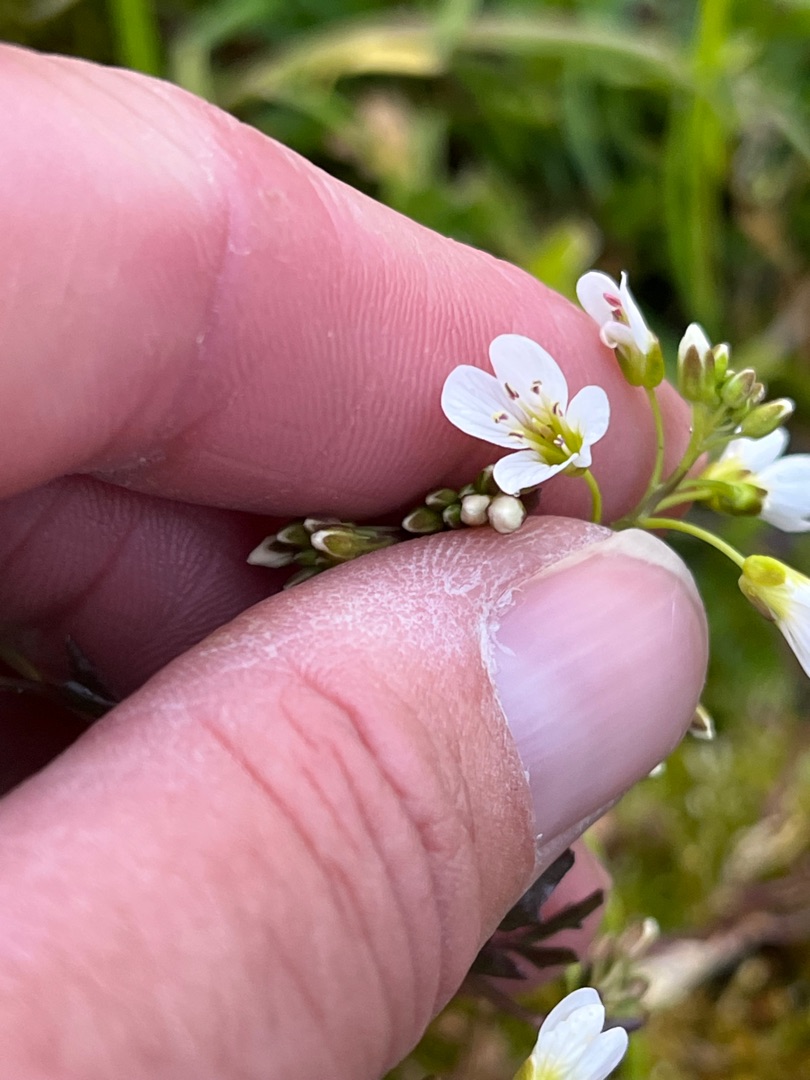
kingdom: Plantae
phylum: Tracheophyta
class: Magnoliopsida
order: Brassicales
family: Brassicaceae
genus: Cardamine
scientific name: Cardamine amara
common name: Vandkarse
